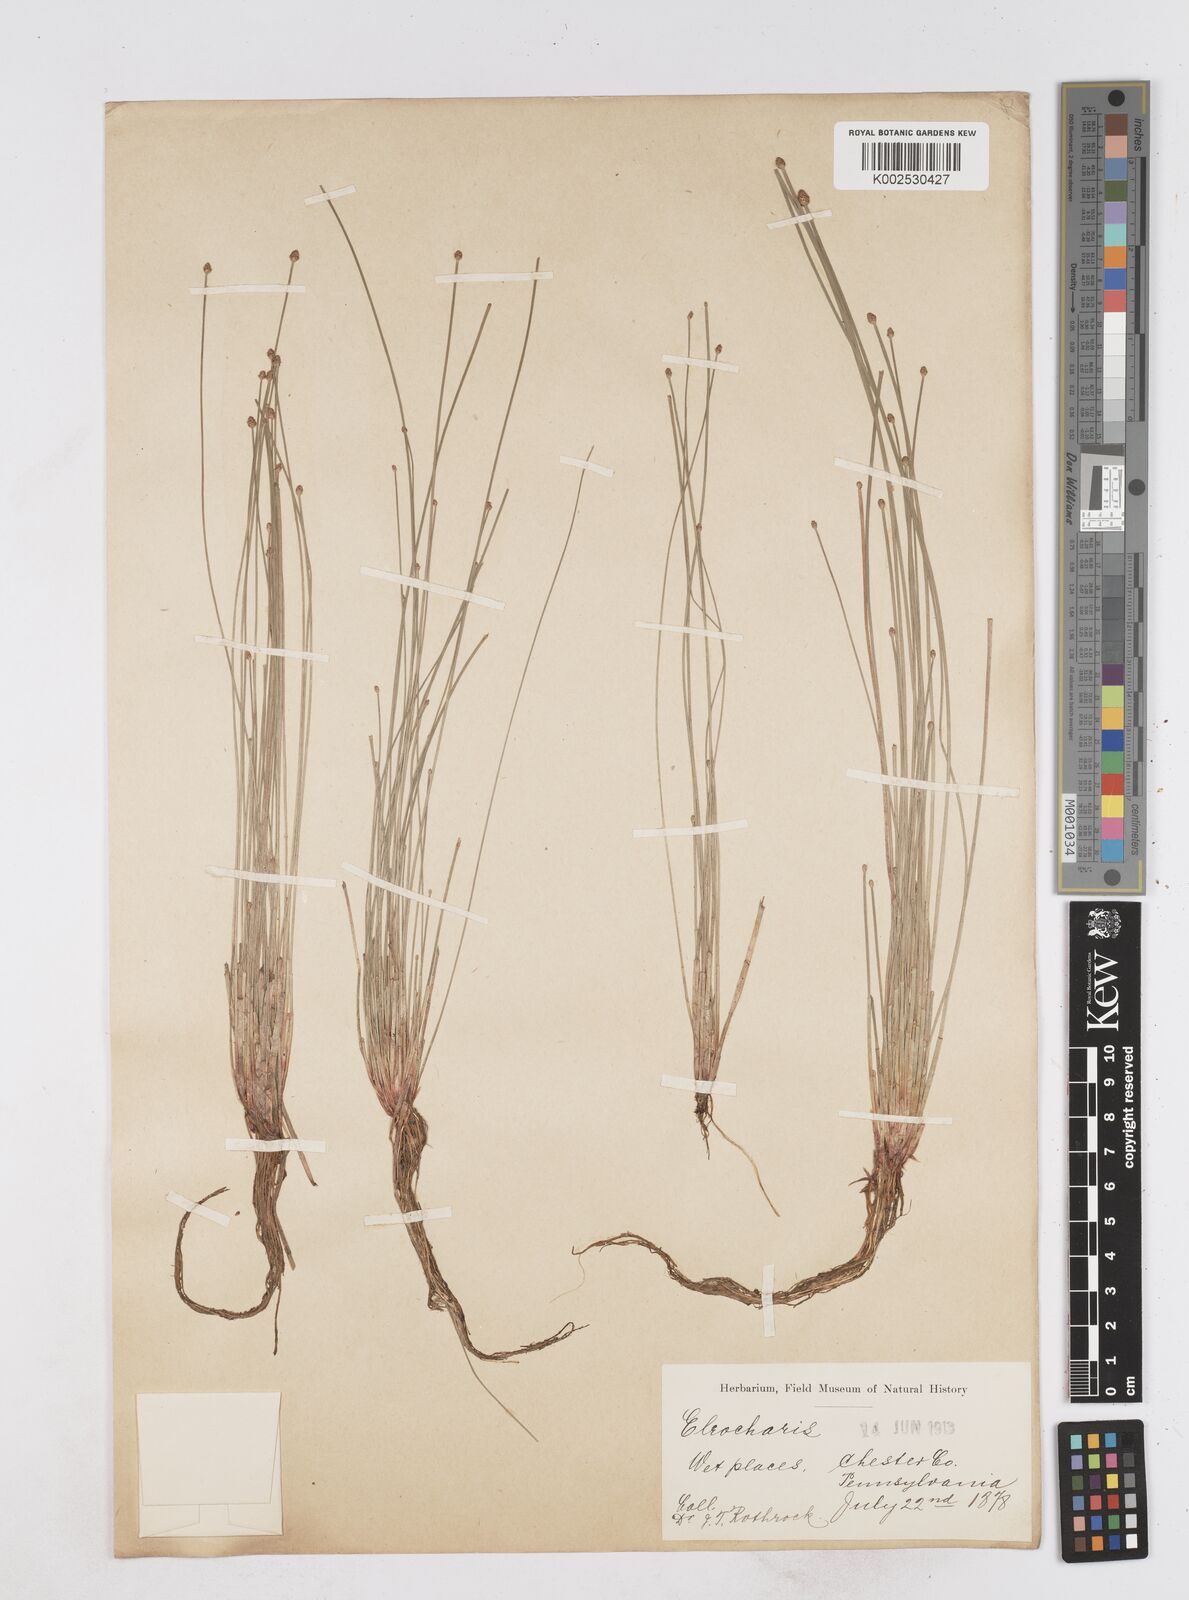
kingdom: Plantae
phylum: Tracheophyta
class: Liliopsida
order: Poales
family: Cyperaceae
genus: Eleocharis
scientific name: Eleocharis
